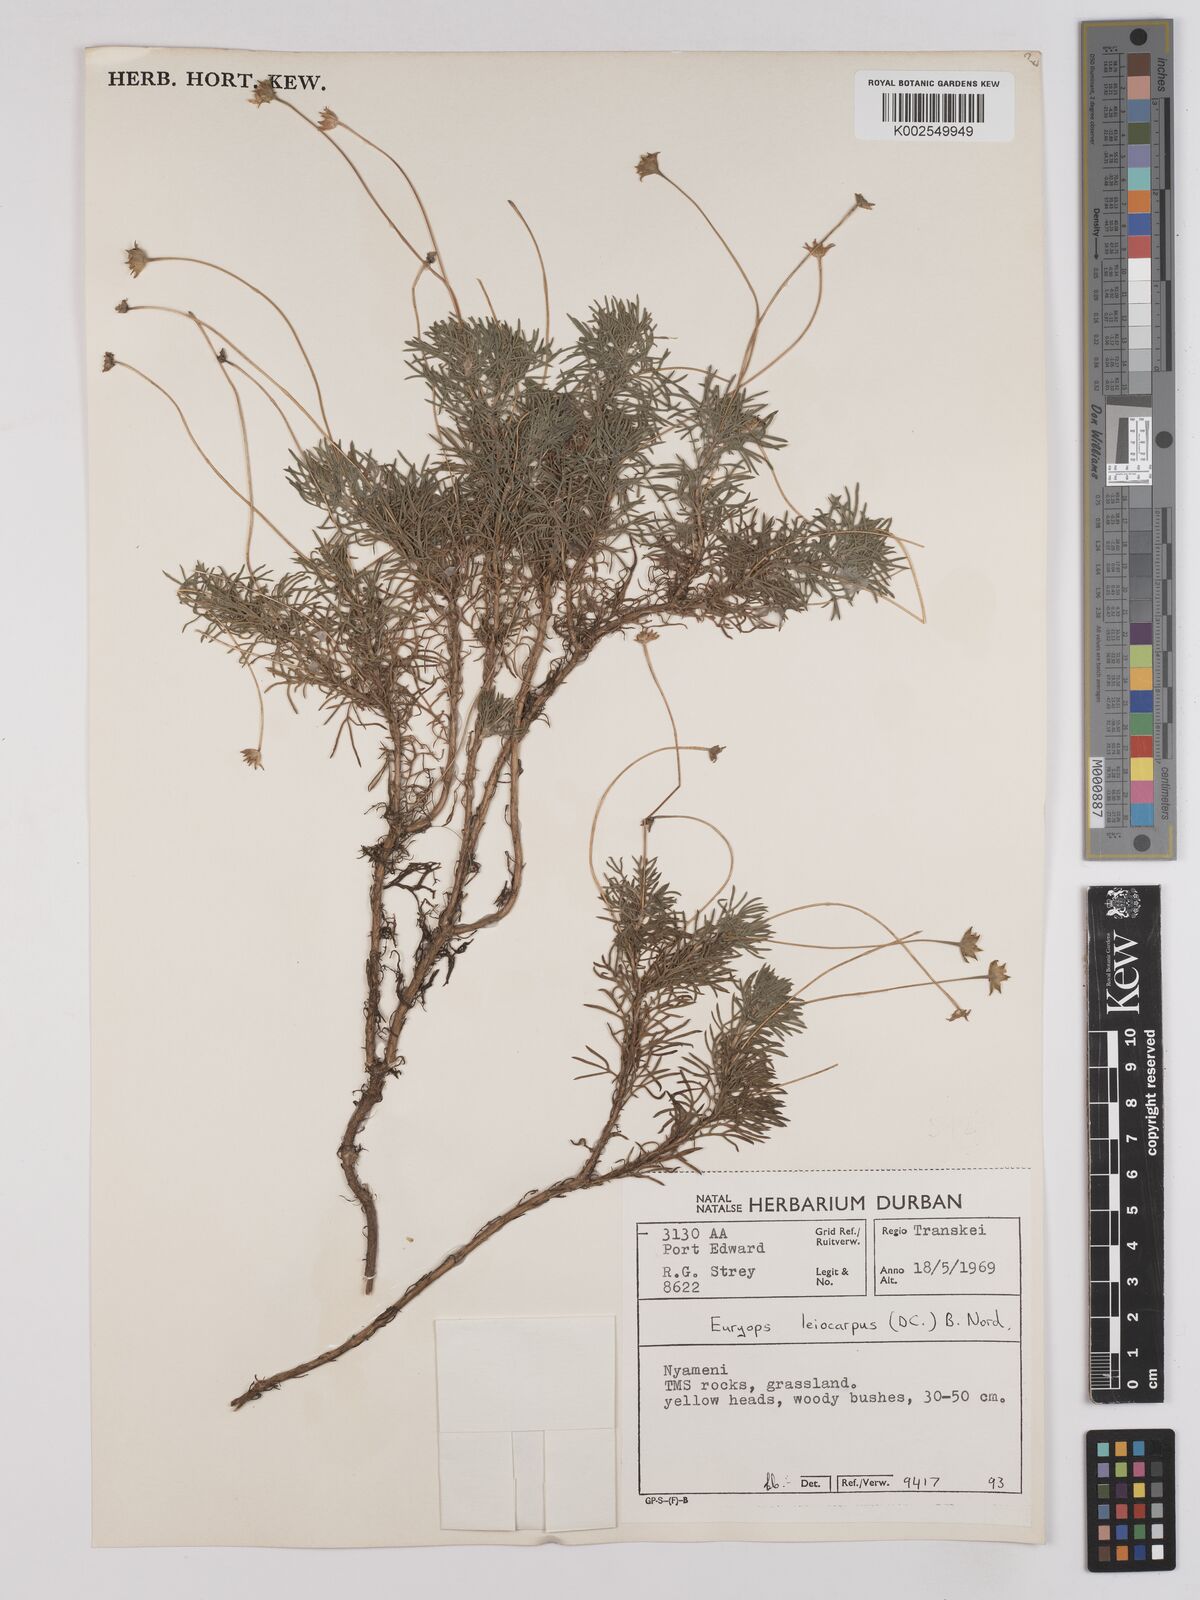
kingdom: Plantae
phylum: Tracheophyta
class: Magnoliopsida
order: Asterales
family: Asteraceae
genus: Euryops
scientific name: Euryops leiocarpus
